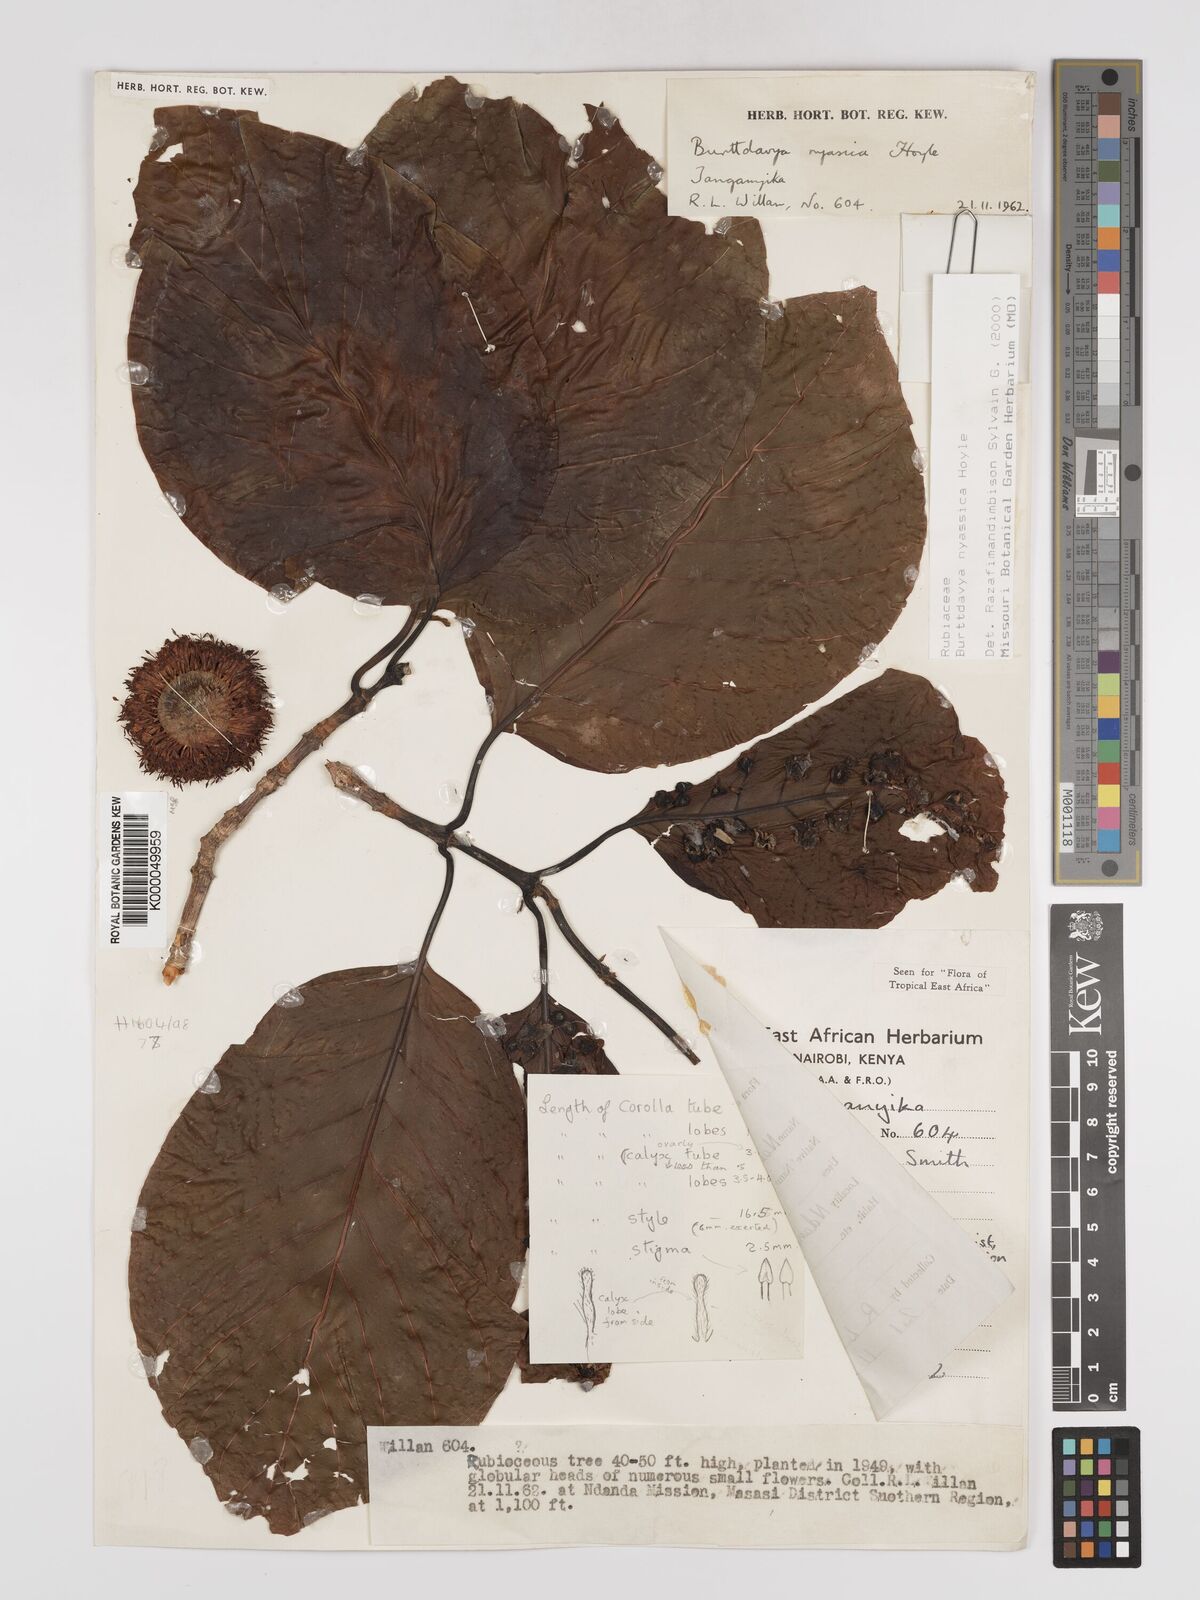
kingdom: Plantae
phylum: Tracheophyta
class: Magnoliopsida
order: Gentianales
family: Rubiaceae
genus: Nauclea
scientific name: Nauclea
